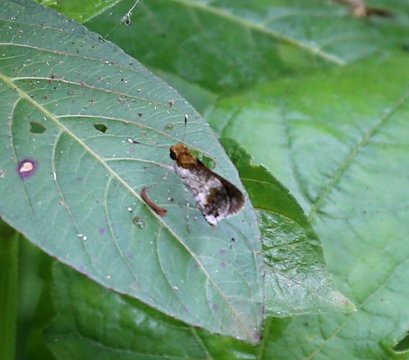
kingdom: Animalia
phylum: Arthropoda
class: Insecta
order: Lepidoptera
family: Hesperiidae
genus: Acleros
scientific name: Acleros mackenii
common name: Macken's Dart
